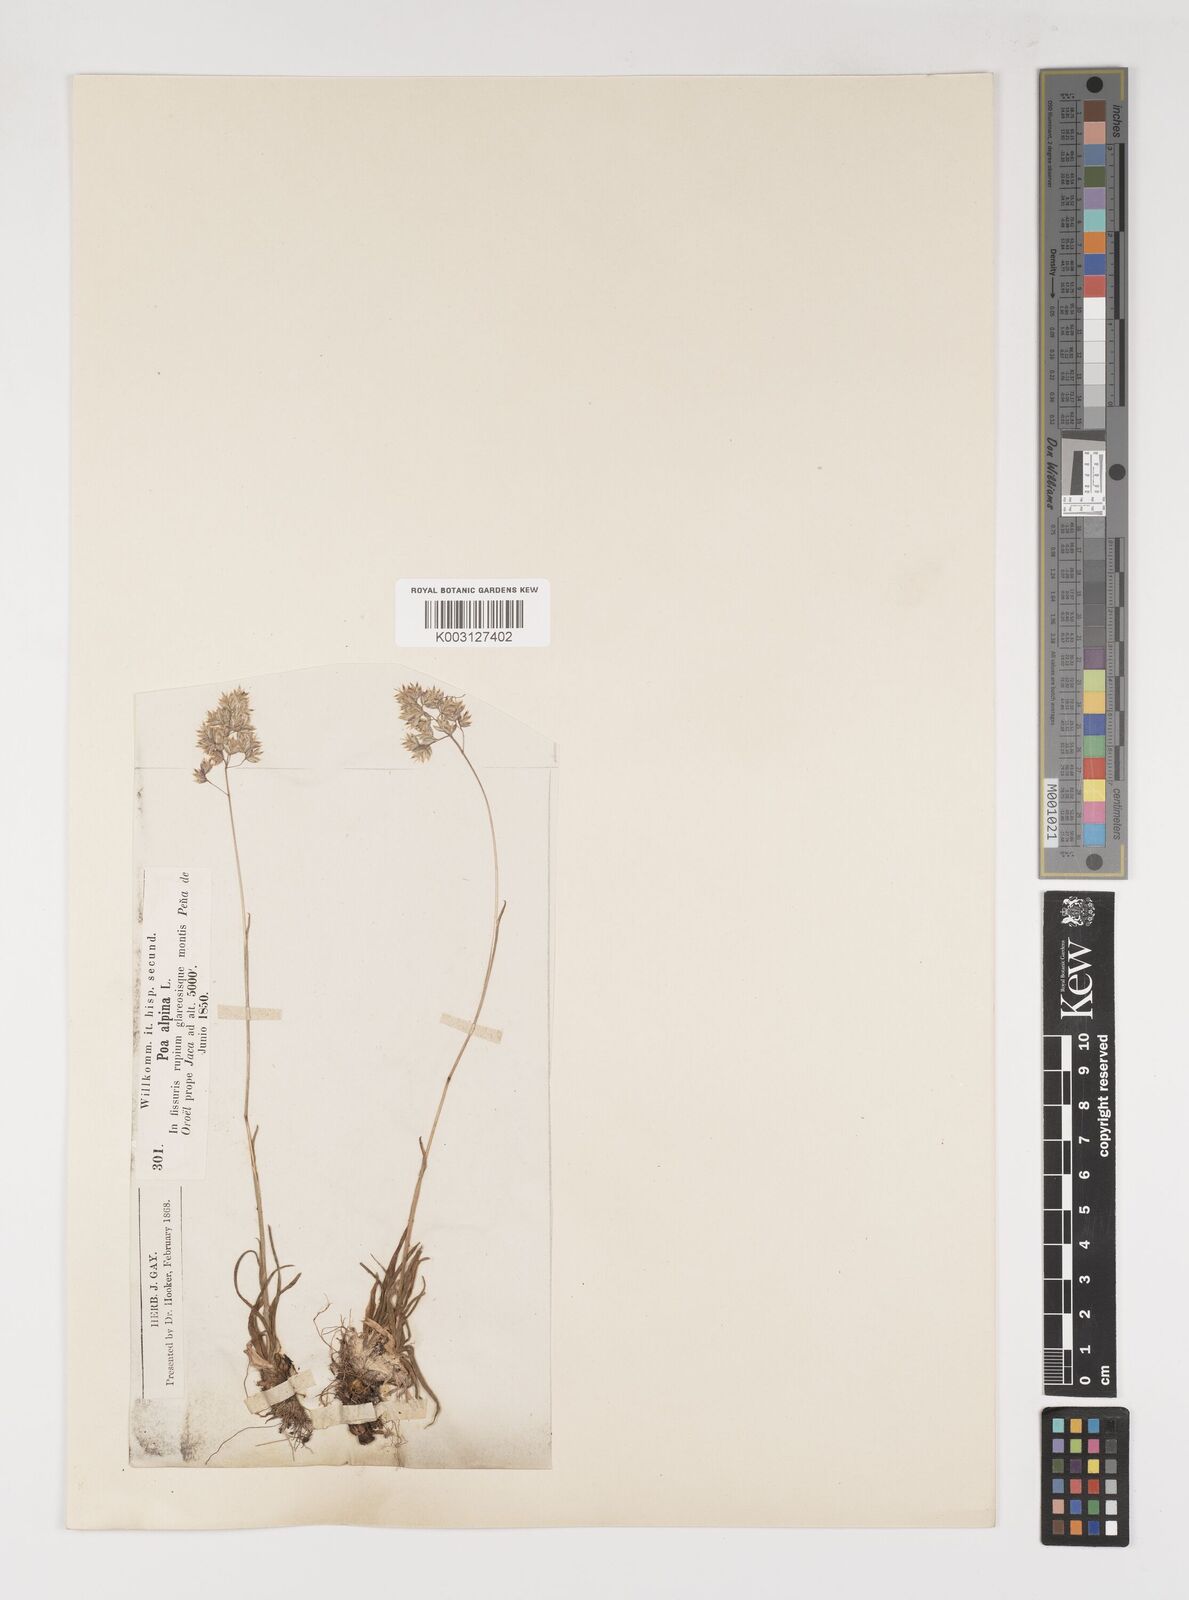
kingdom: Plantae
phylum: Tracheophyta
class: Liliopsida
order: Poales
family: Poaceae
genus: Poa
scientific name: Poa alpina
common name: Alpine bluegrass
